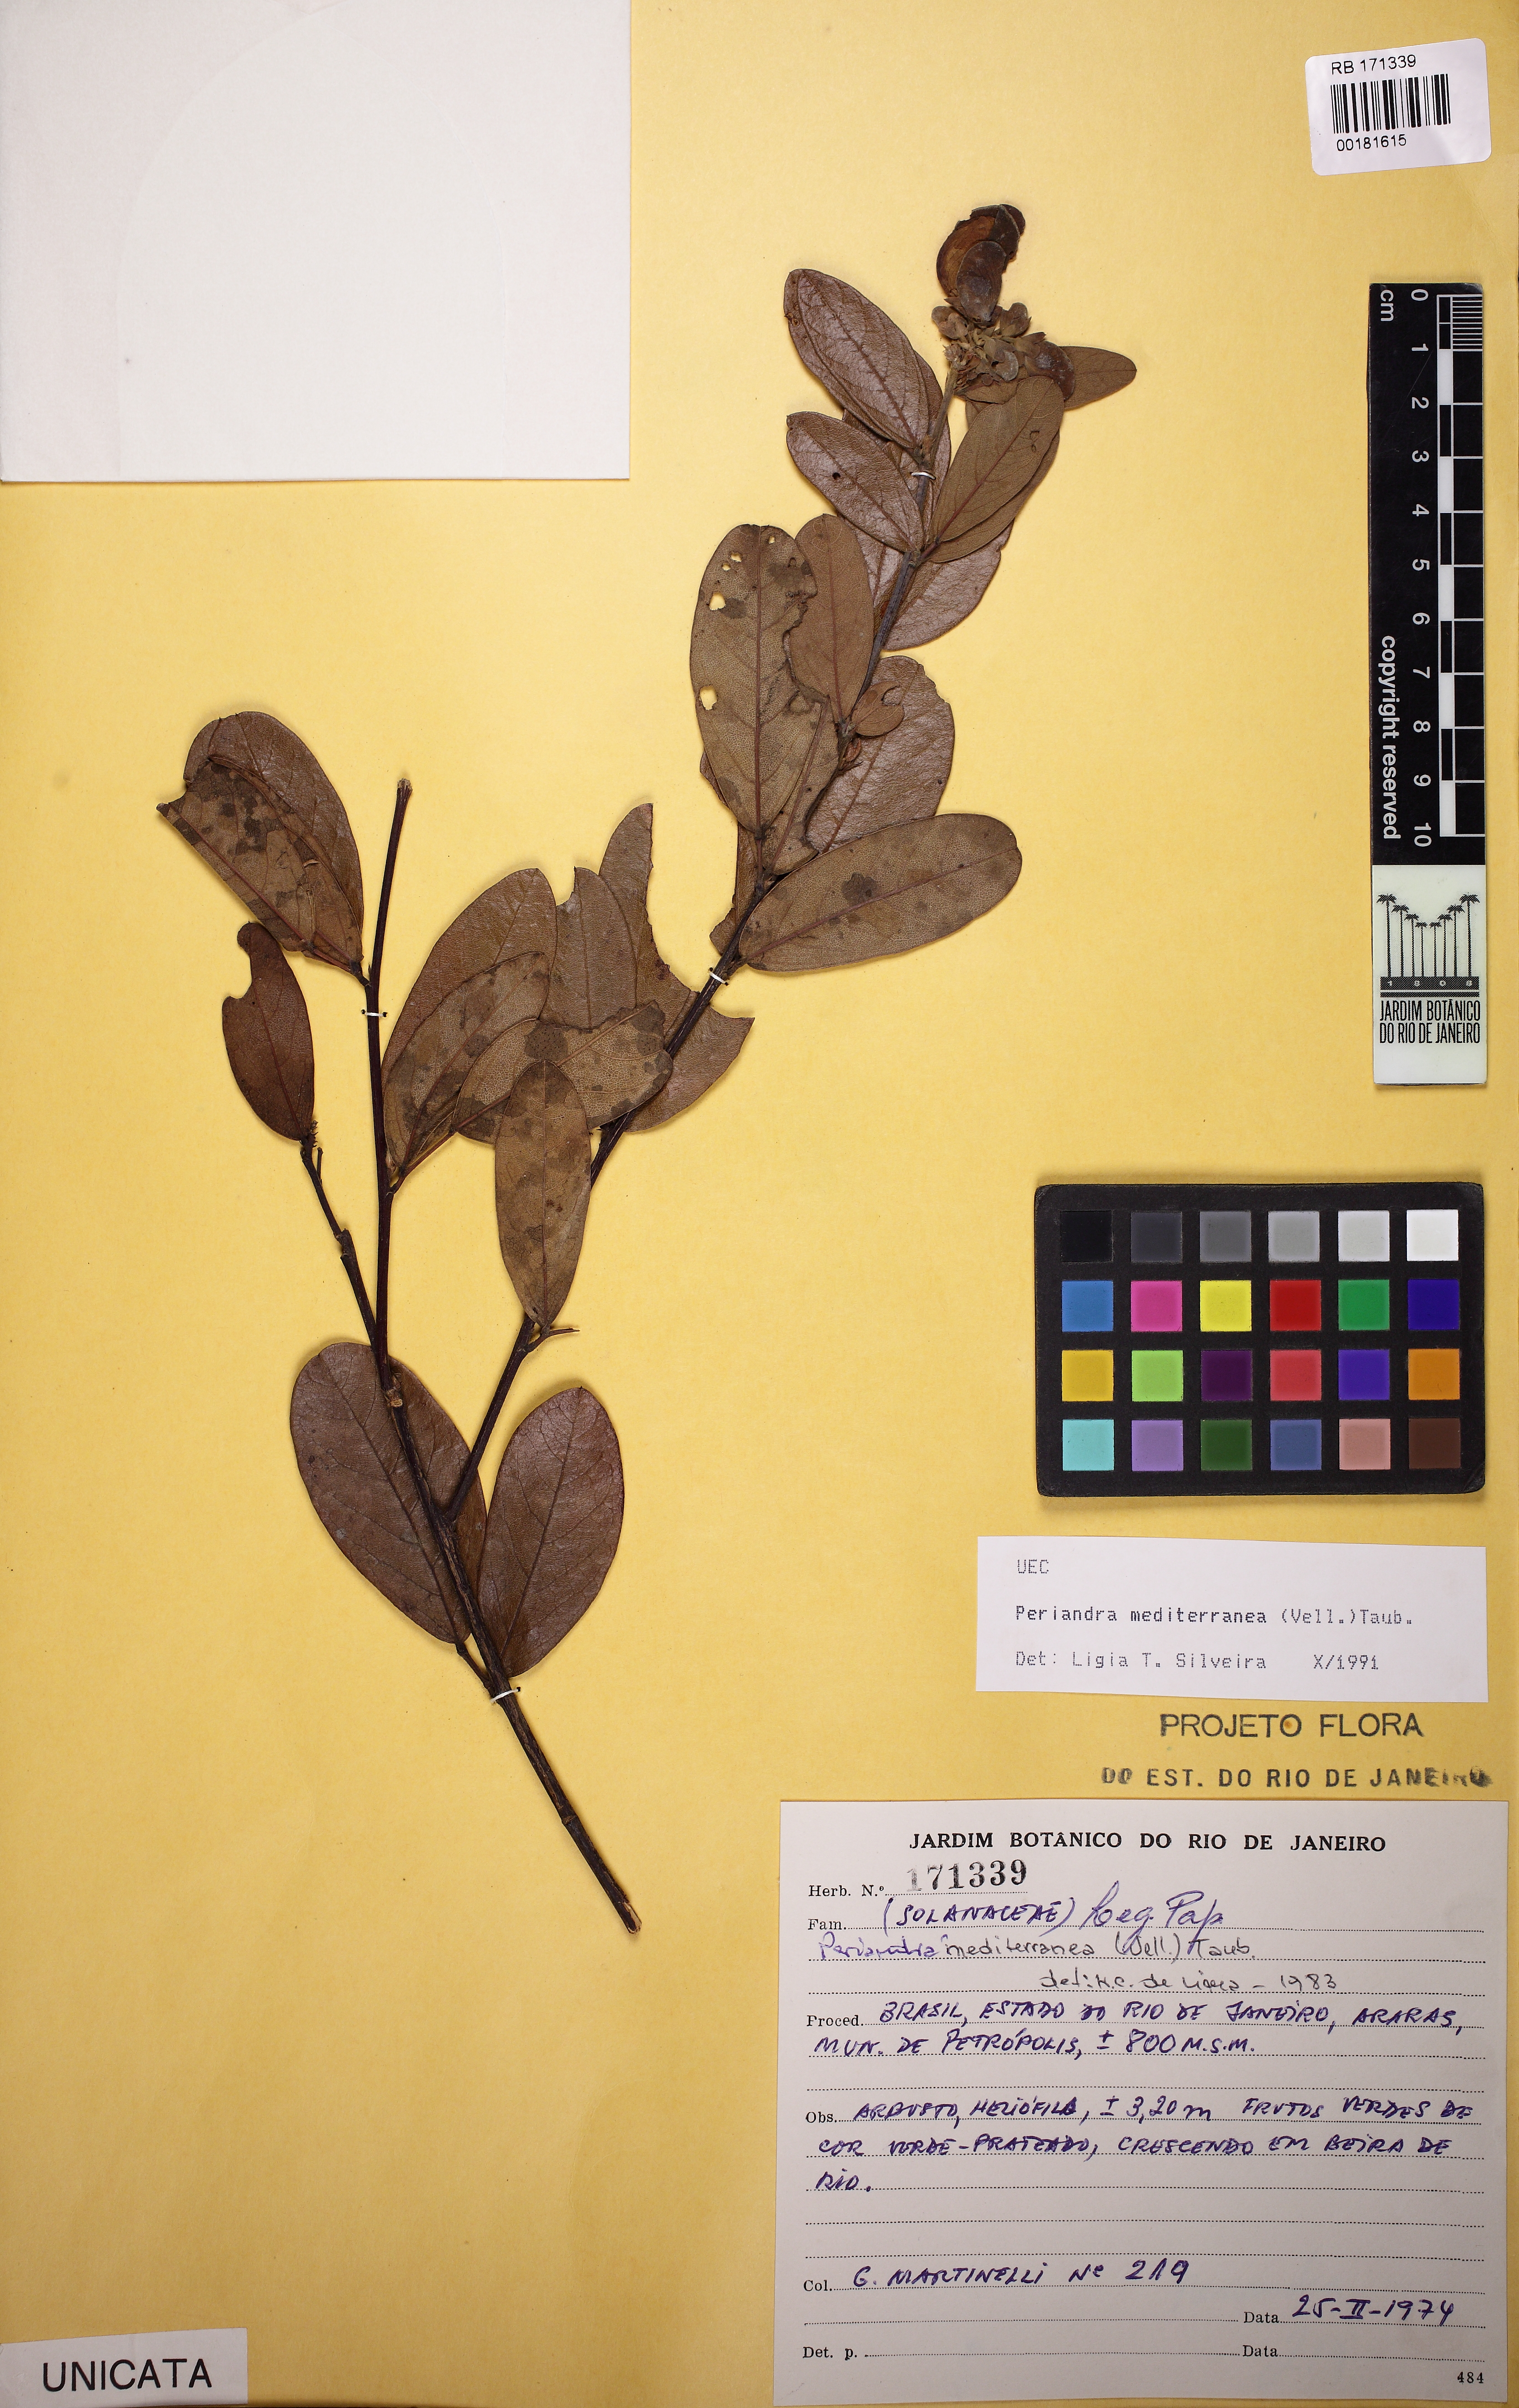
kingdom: Plantae
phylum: Tracheophyta
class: Magnoliopsida
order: Fabales
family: Fabaceae
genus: Periandra
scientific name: Periandra mediterranea
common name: Brazilian licorice
